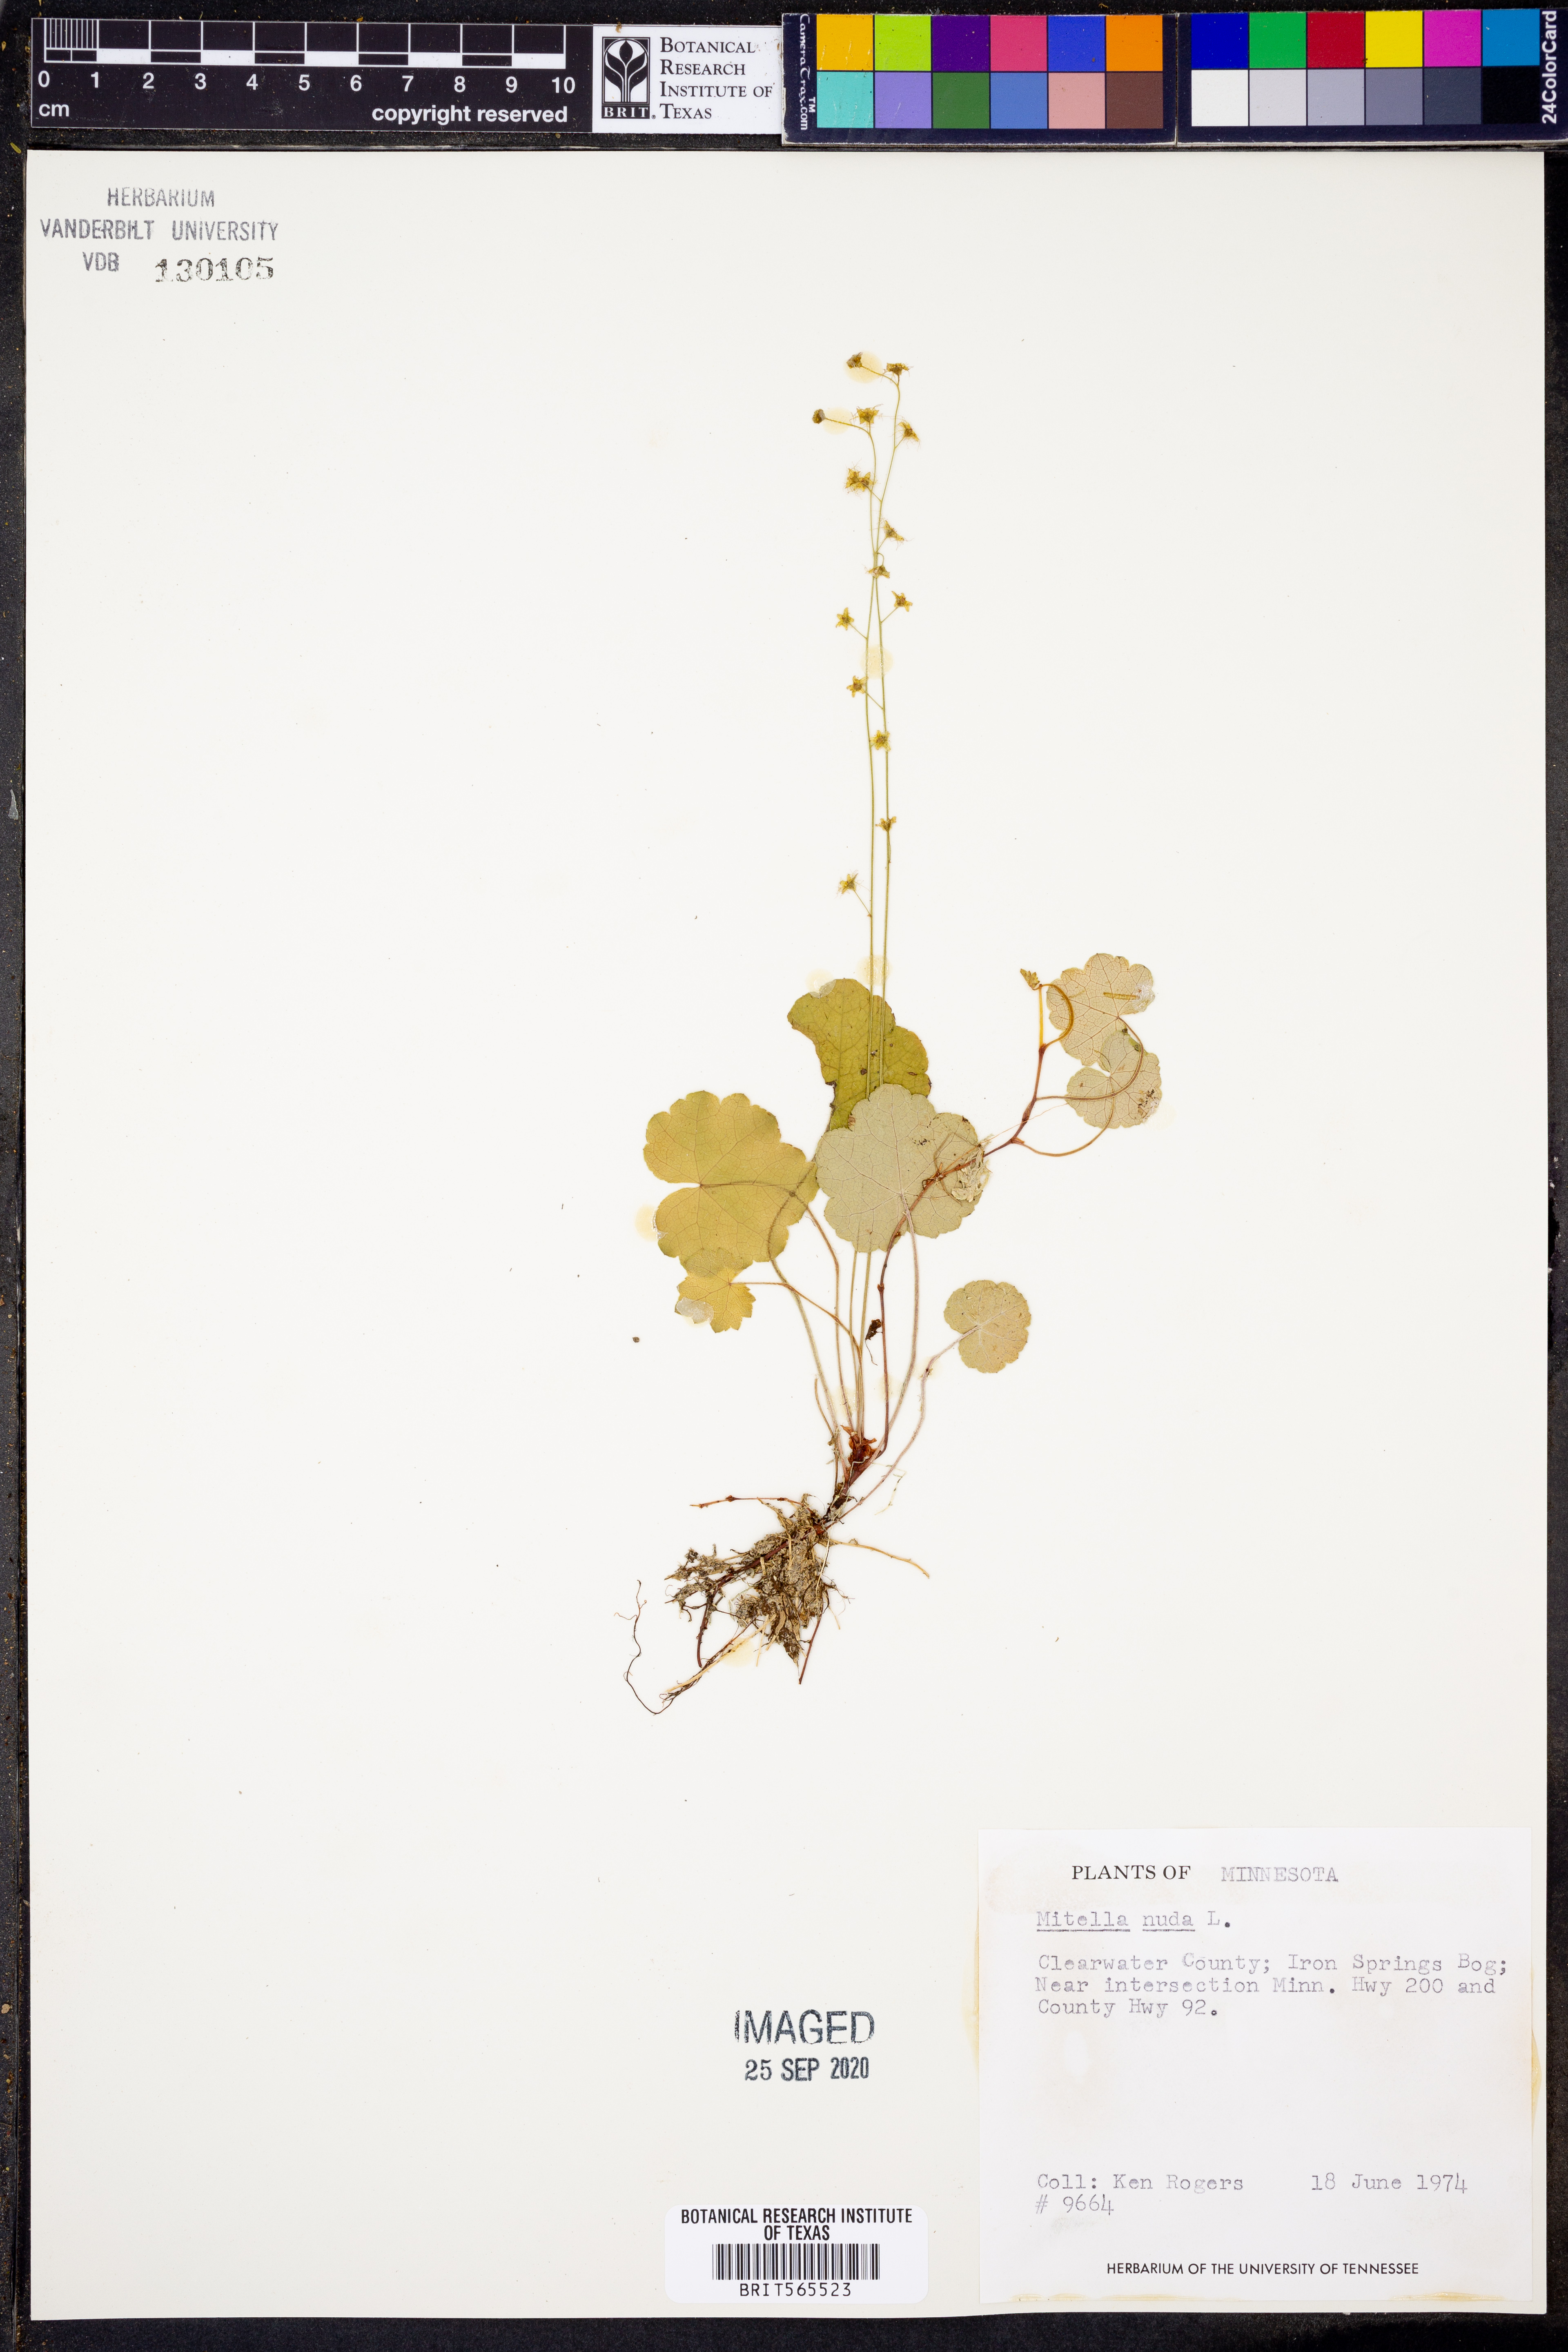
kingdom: Plantae
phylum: Tracheophyta
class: Magnoliopsida
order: Saxifragales
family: Saxifragaceae
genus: Mitella
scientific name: Mitella nuda
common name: Bare-stemmed bishop's-cap
